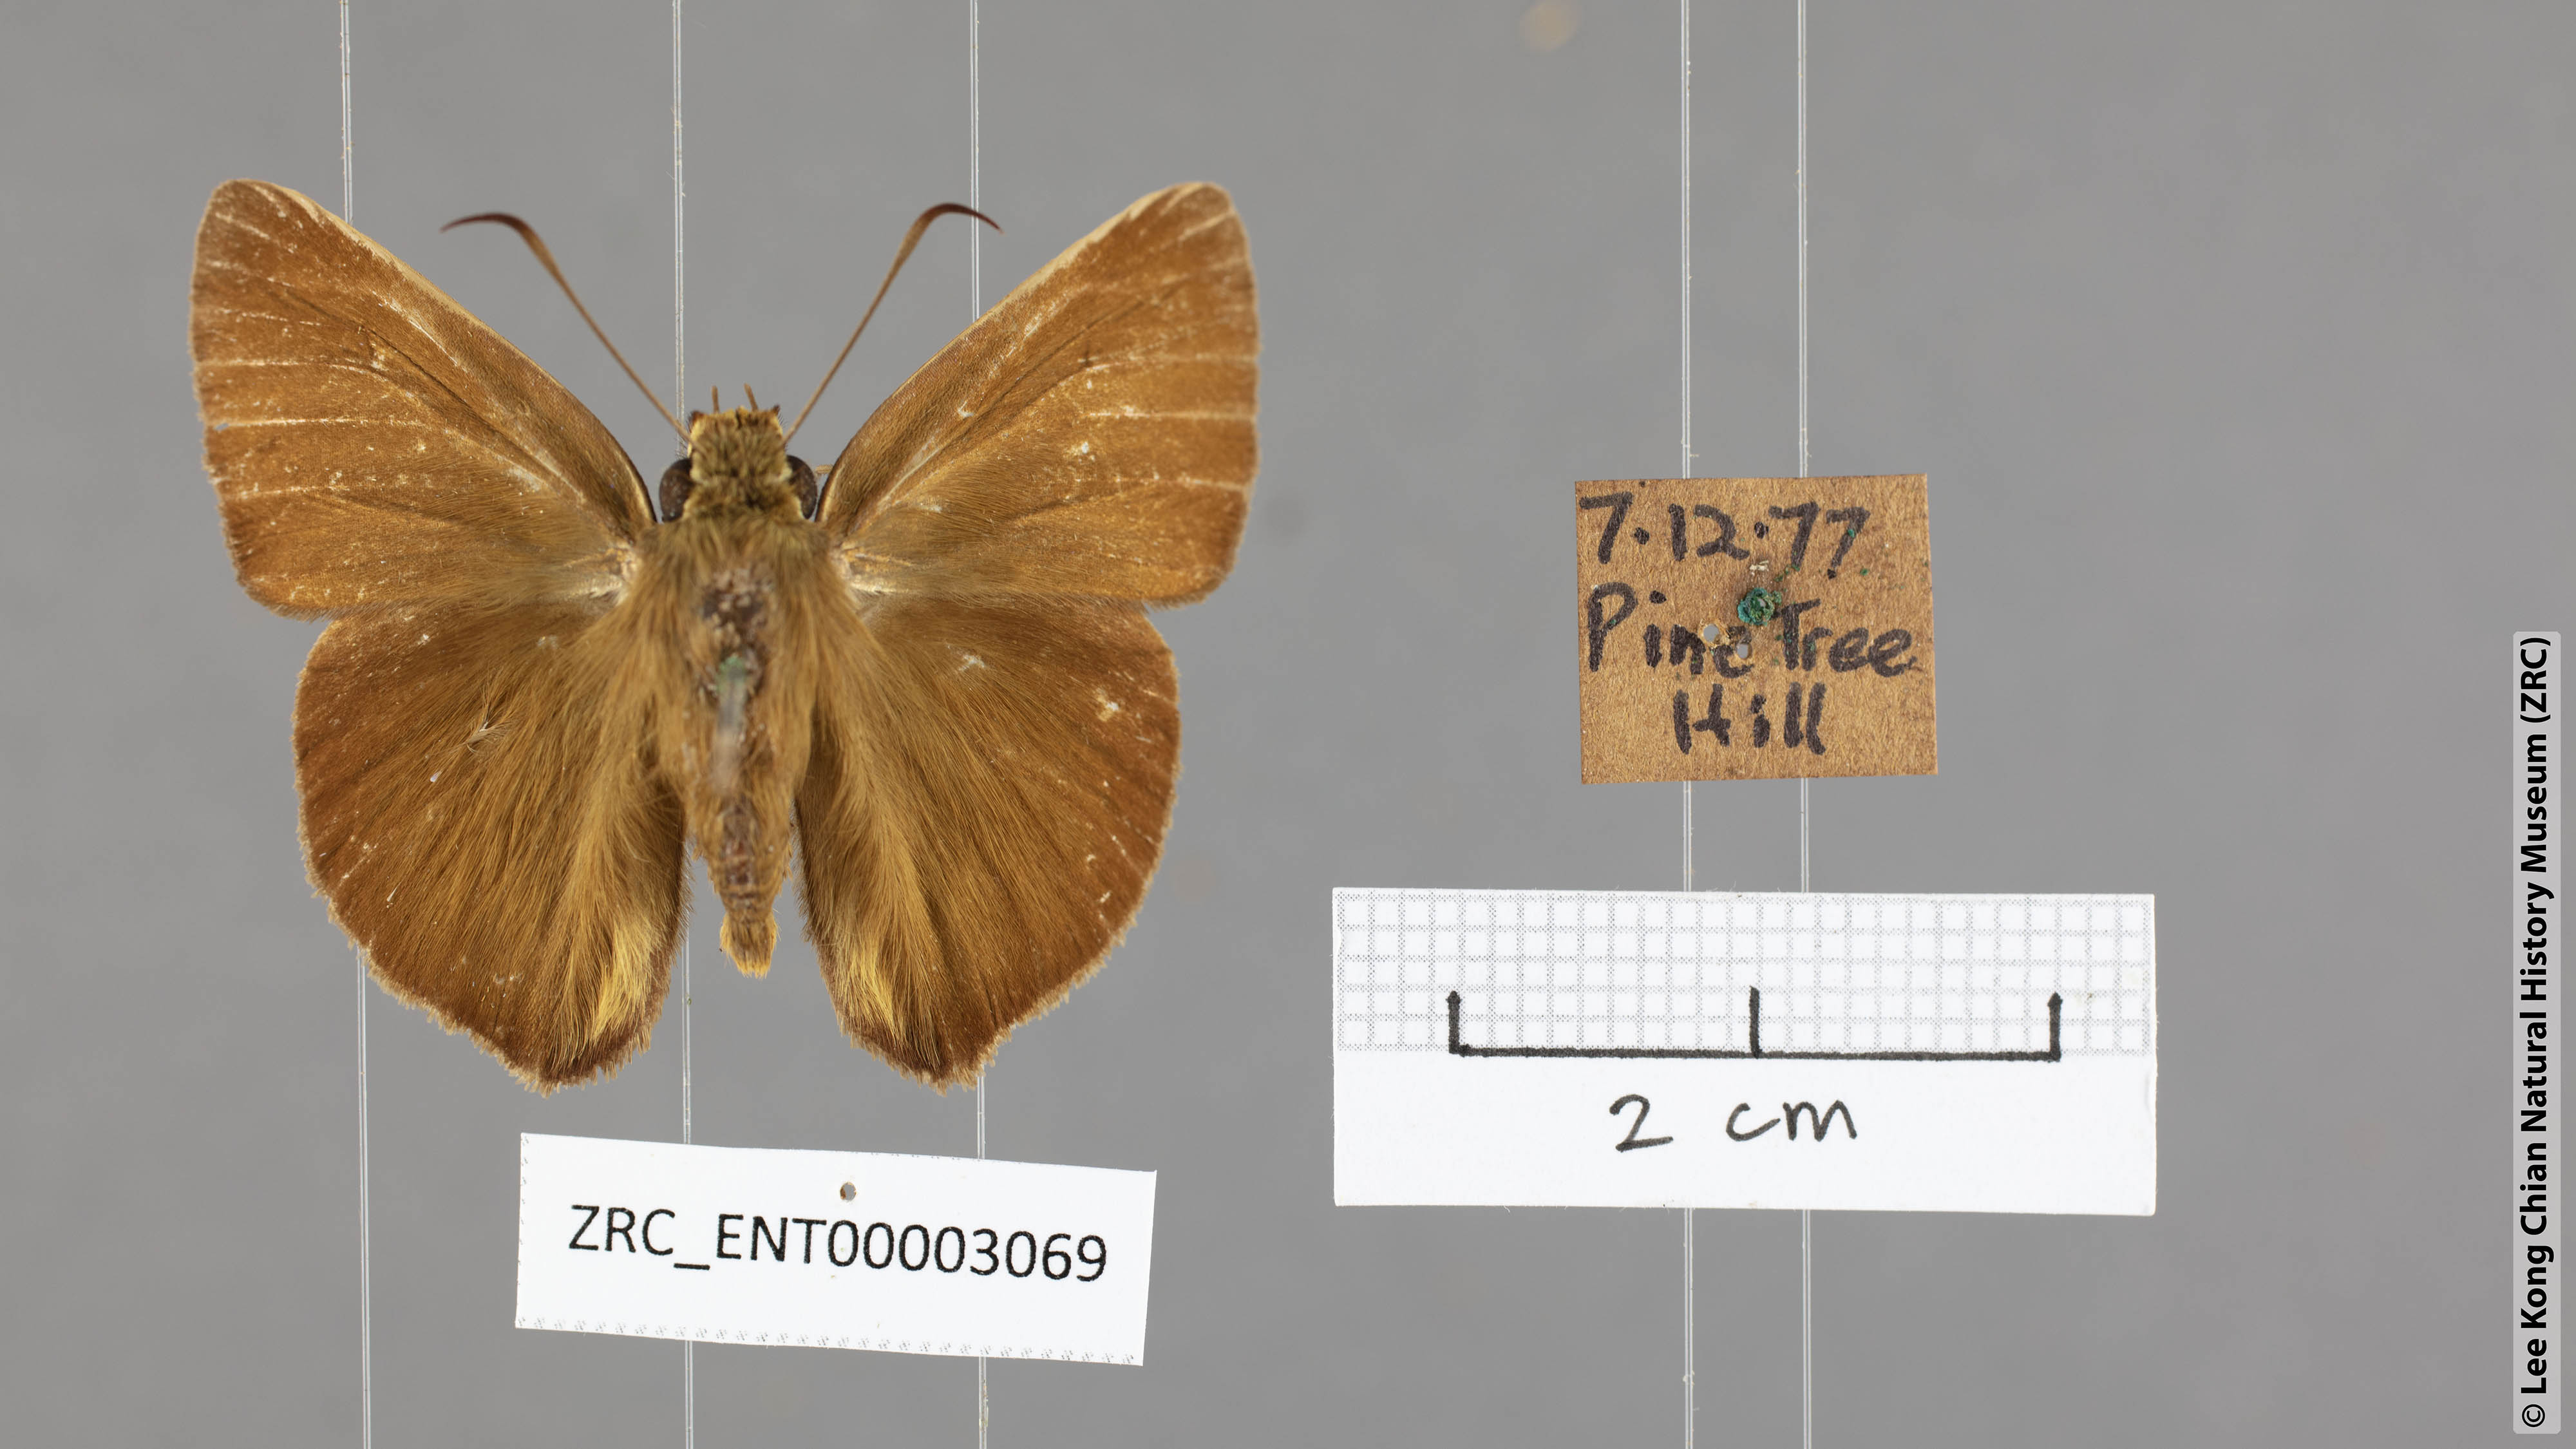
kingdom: Animalia
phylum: Arthropoda
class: Insecta
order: Lepidoptera
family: Hesperiidae
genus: Hasora
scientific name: Hasora mus
